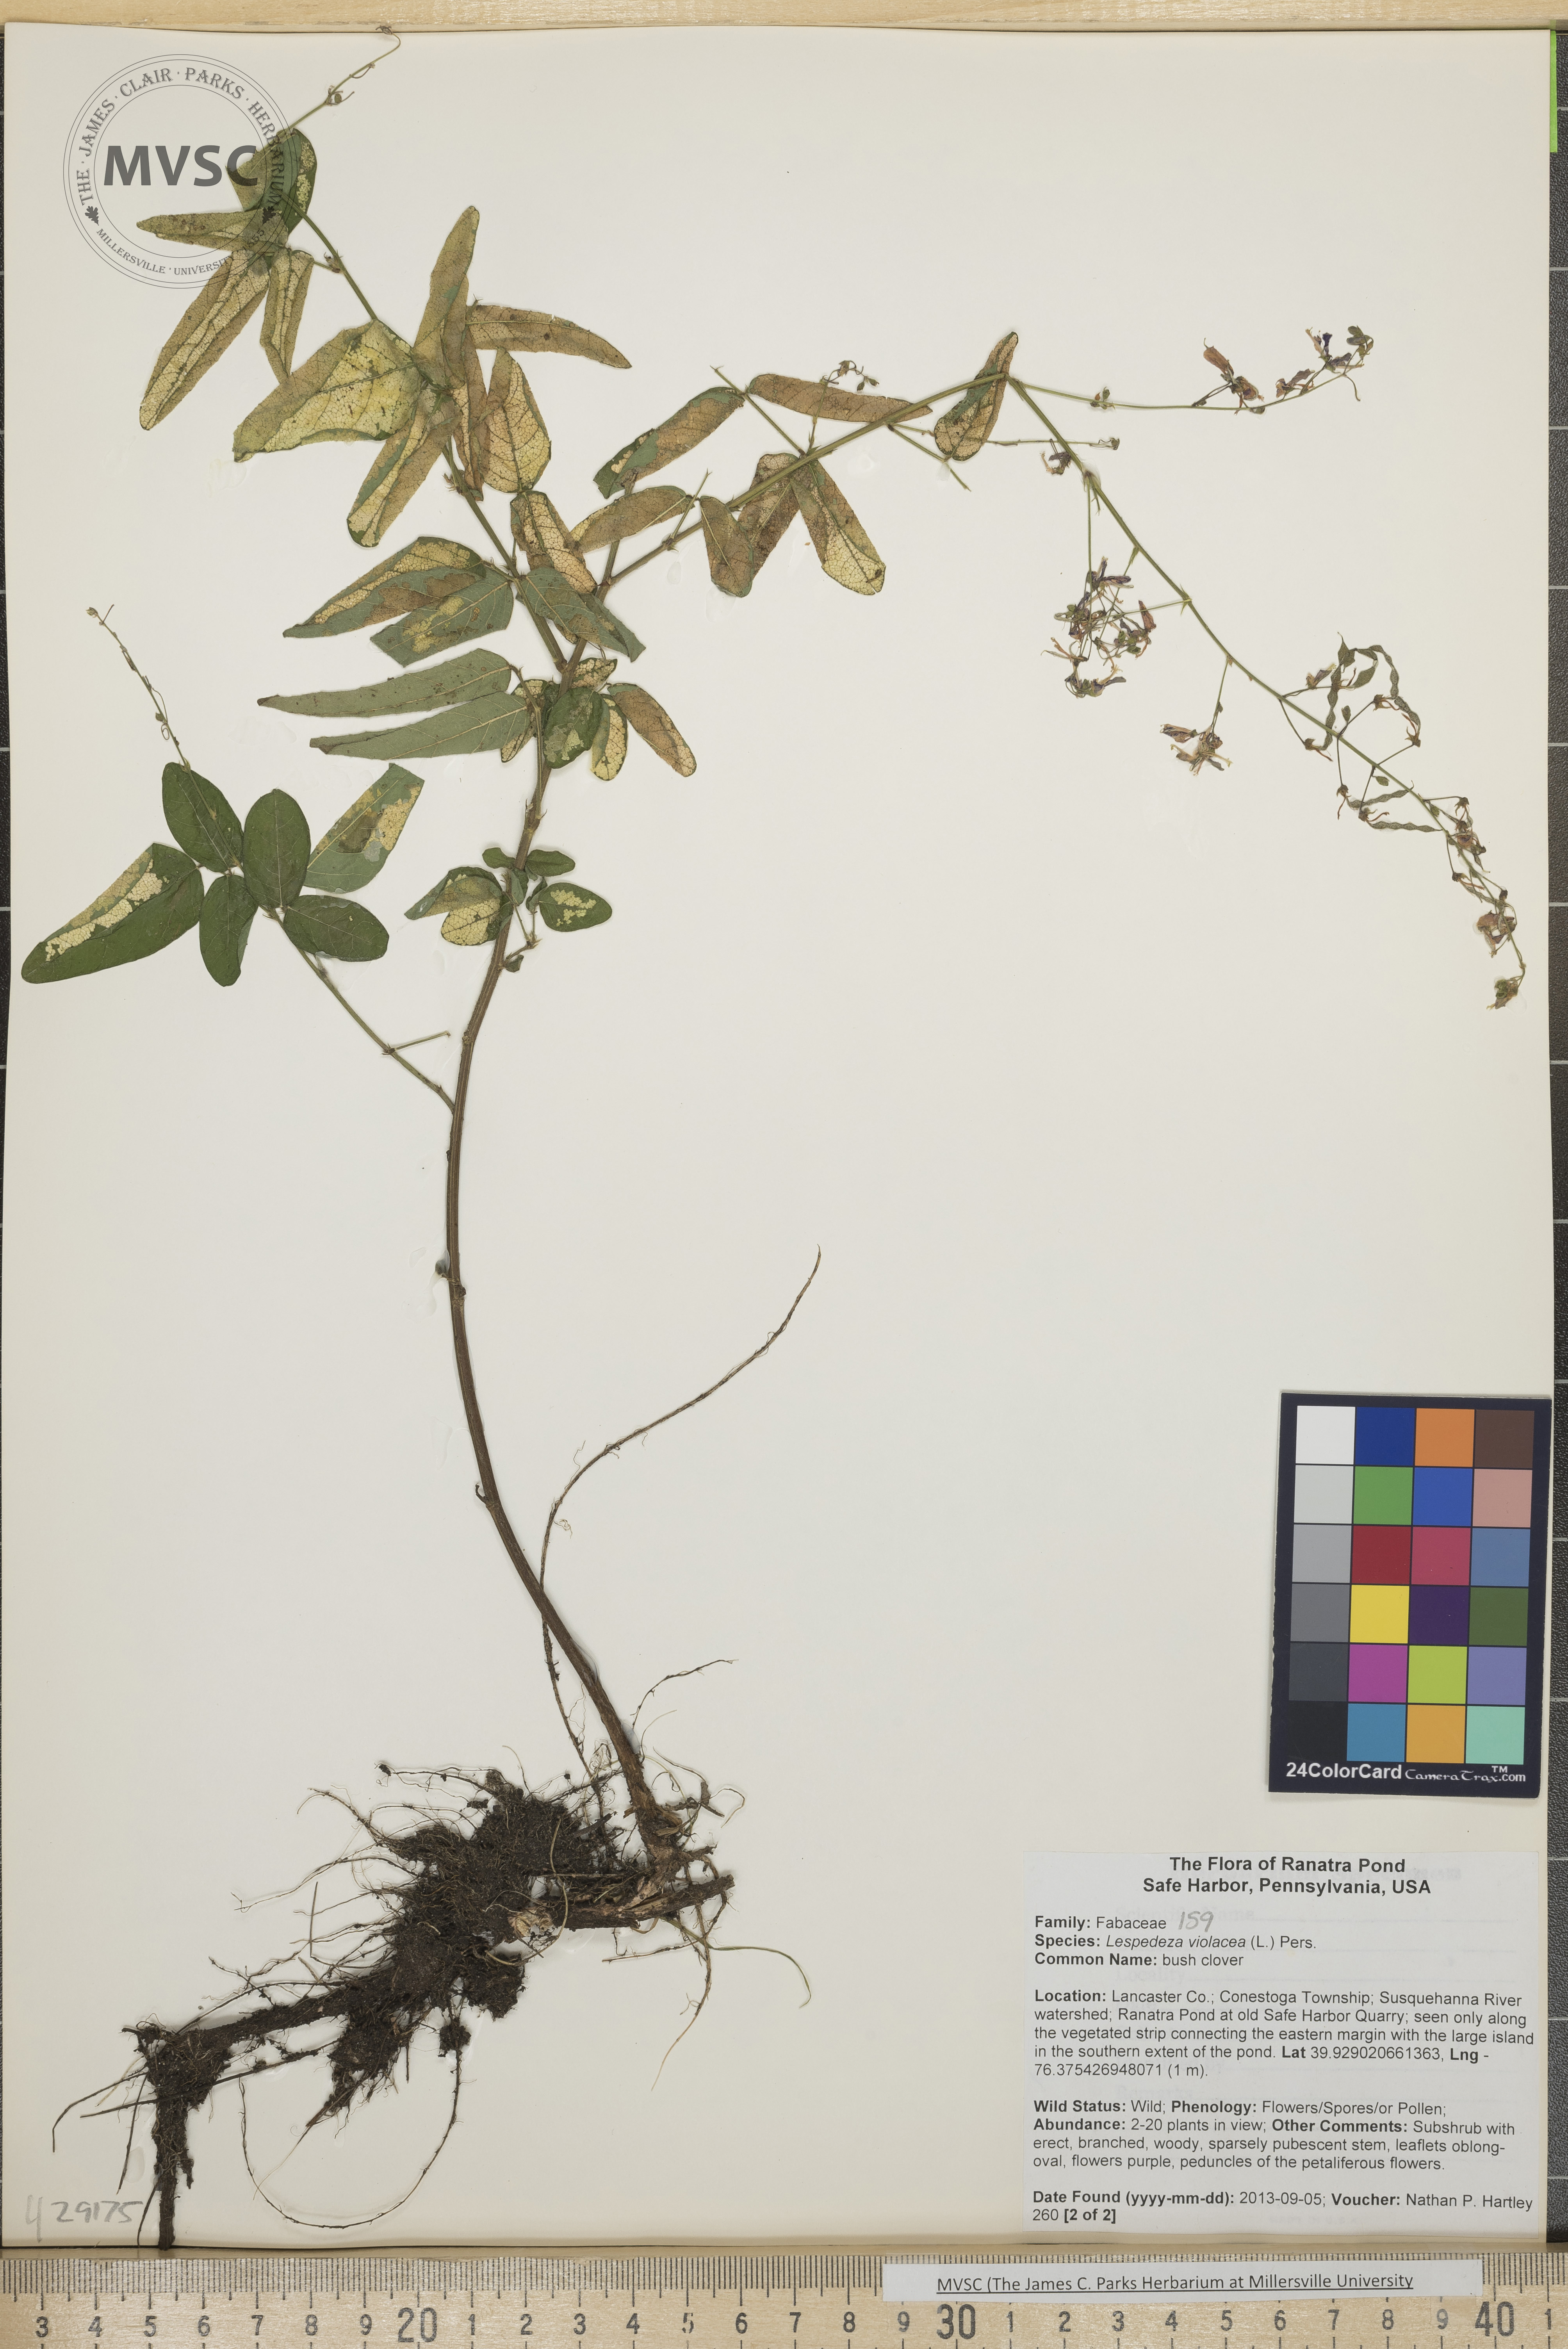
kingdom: Plantae
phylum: Tracheophyta
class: Magnoliopsida
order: Fabales
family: Fabaceae
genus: Lespedeza
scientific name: Lespedeza violacea
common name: Bush clover
